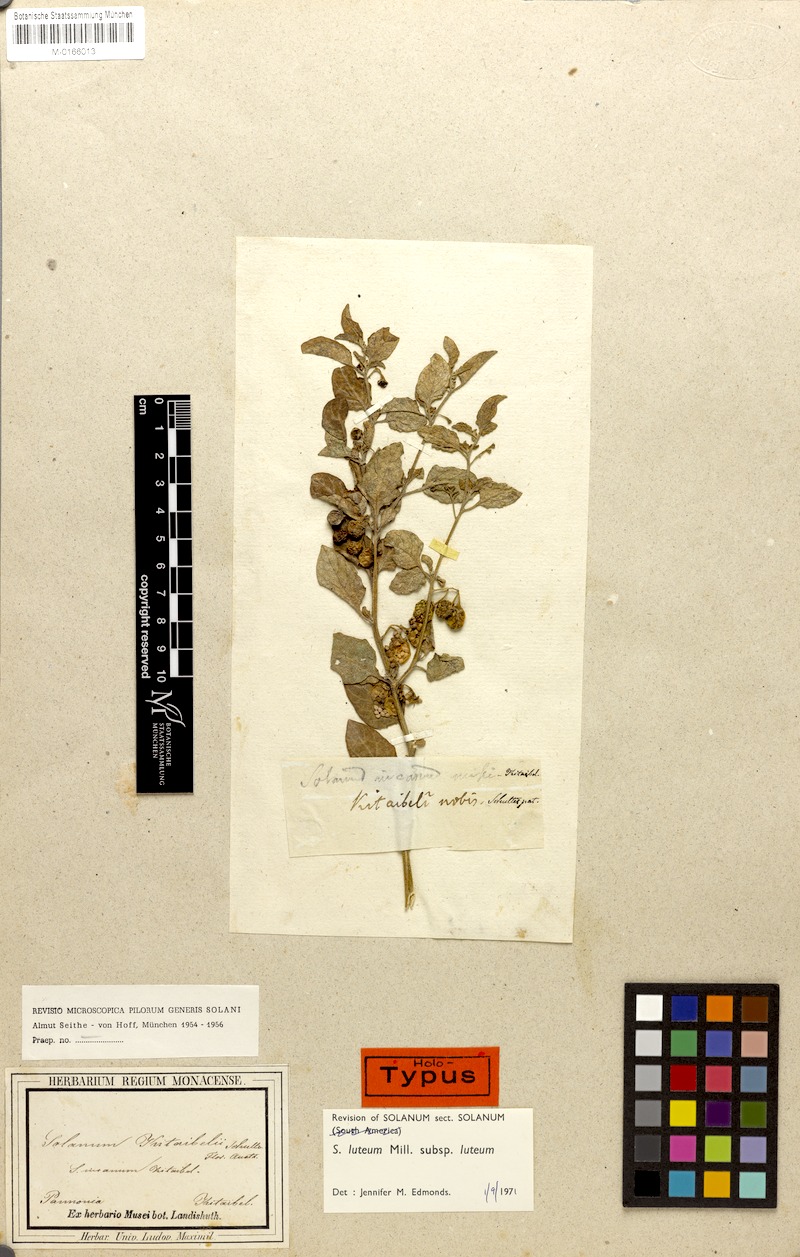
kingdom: Plantae
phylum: Tracheophyta
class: Magnoliopsida
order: Solanales
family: Solanaceae
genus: Solanum
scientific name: Solanum villosum
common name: Red nightshade
